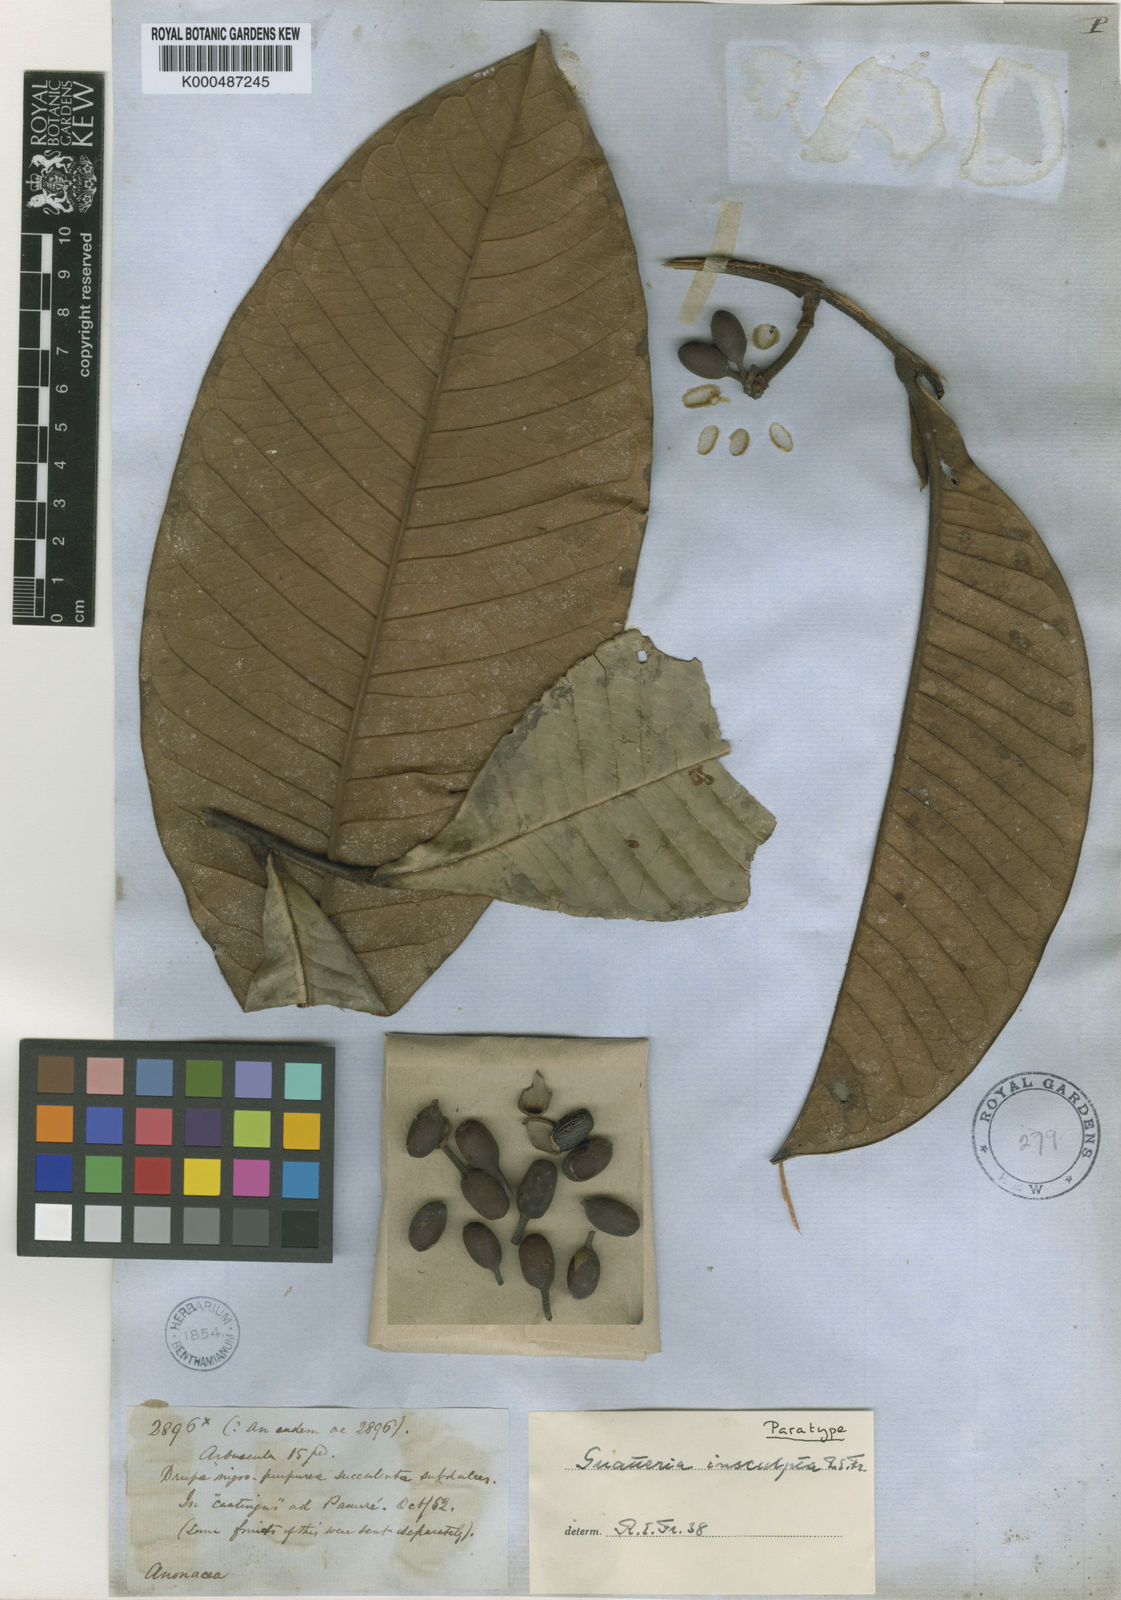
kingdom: Plantae
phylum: Tracheophyta
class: Magnoliopsida
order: Magnoliales
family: Annonaceae
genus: Guatteria
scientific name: Guatteria insculpta
